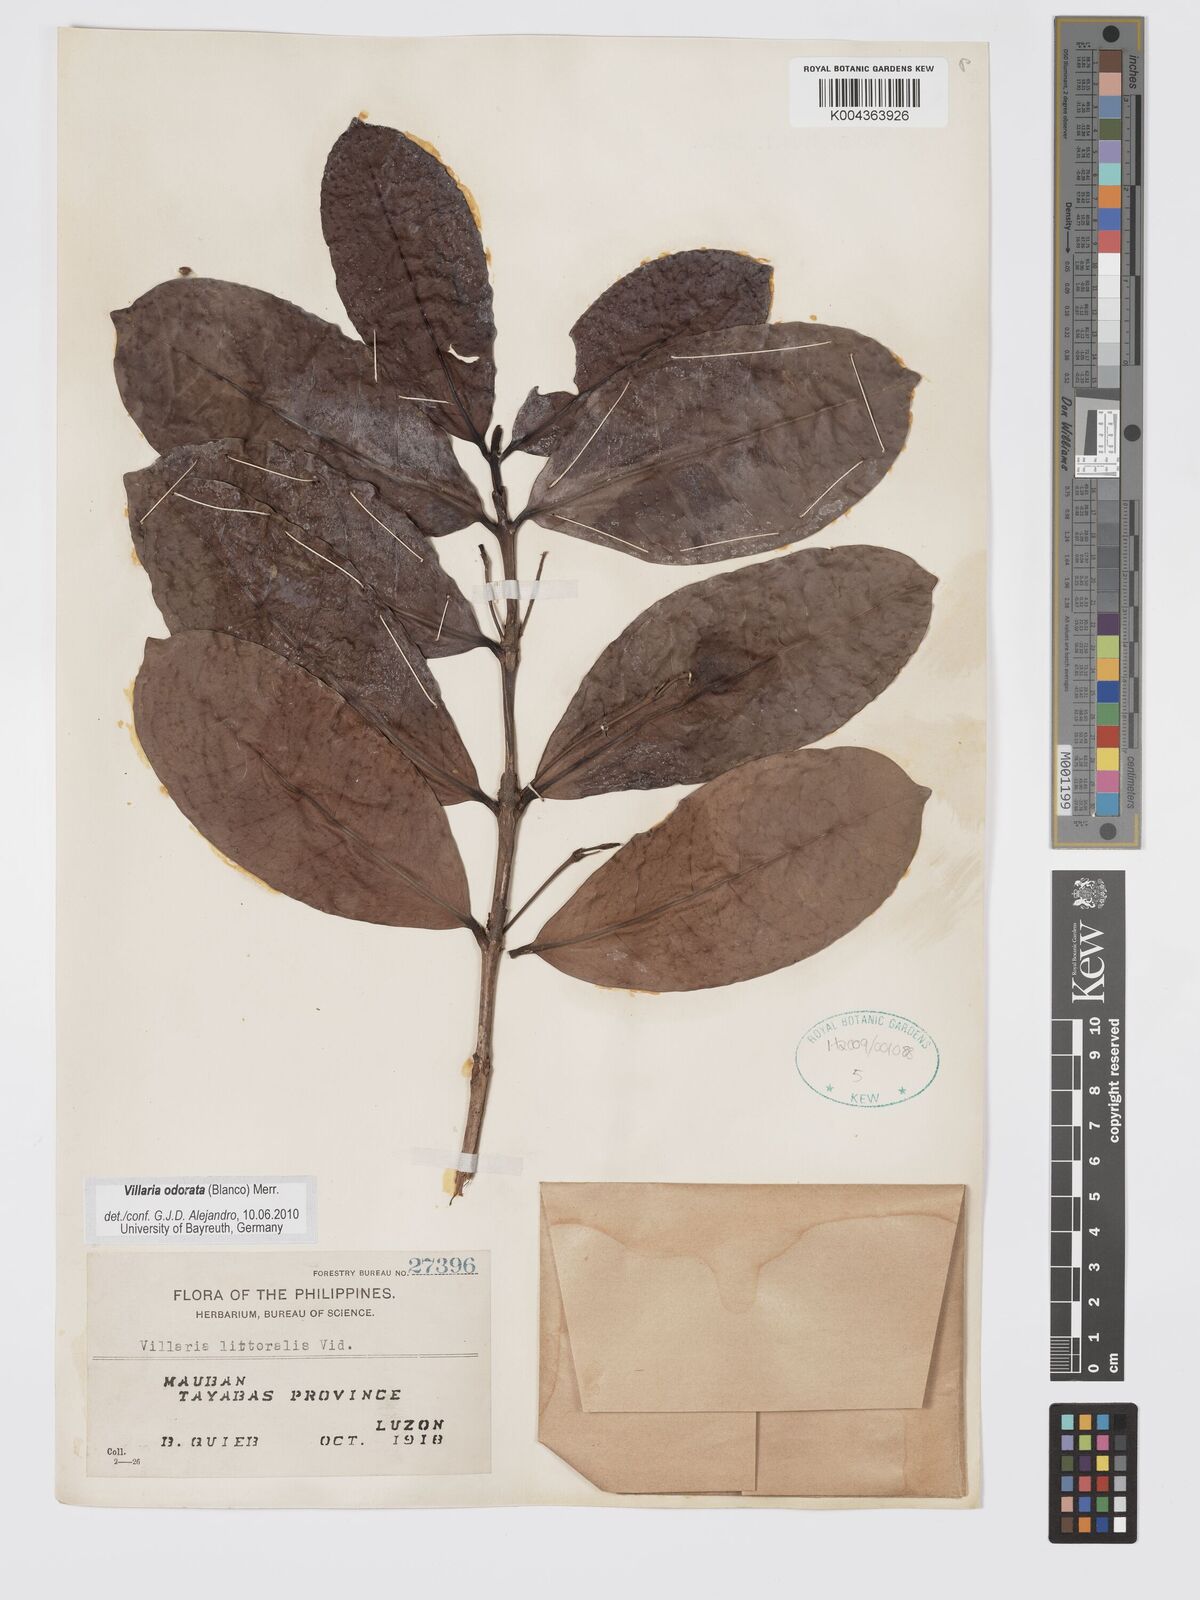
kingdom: Plantae
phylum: Tracheophyta
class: Magnoliopsida
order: Gentianales
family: Rubiaceae
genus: Villaria
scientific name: Villaria odorata
